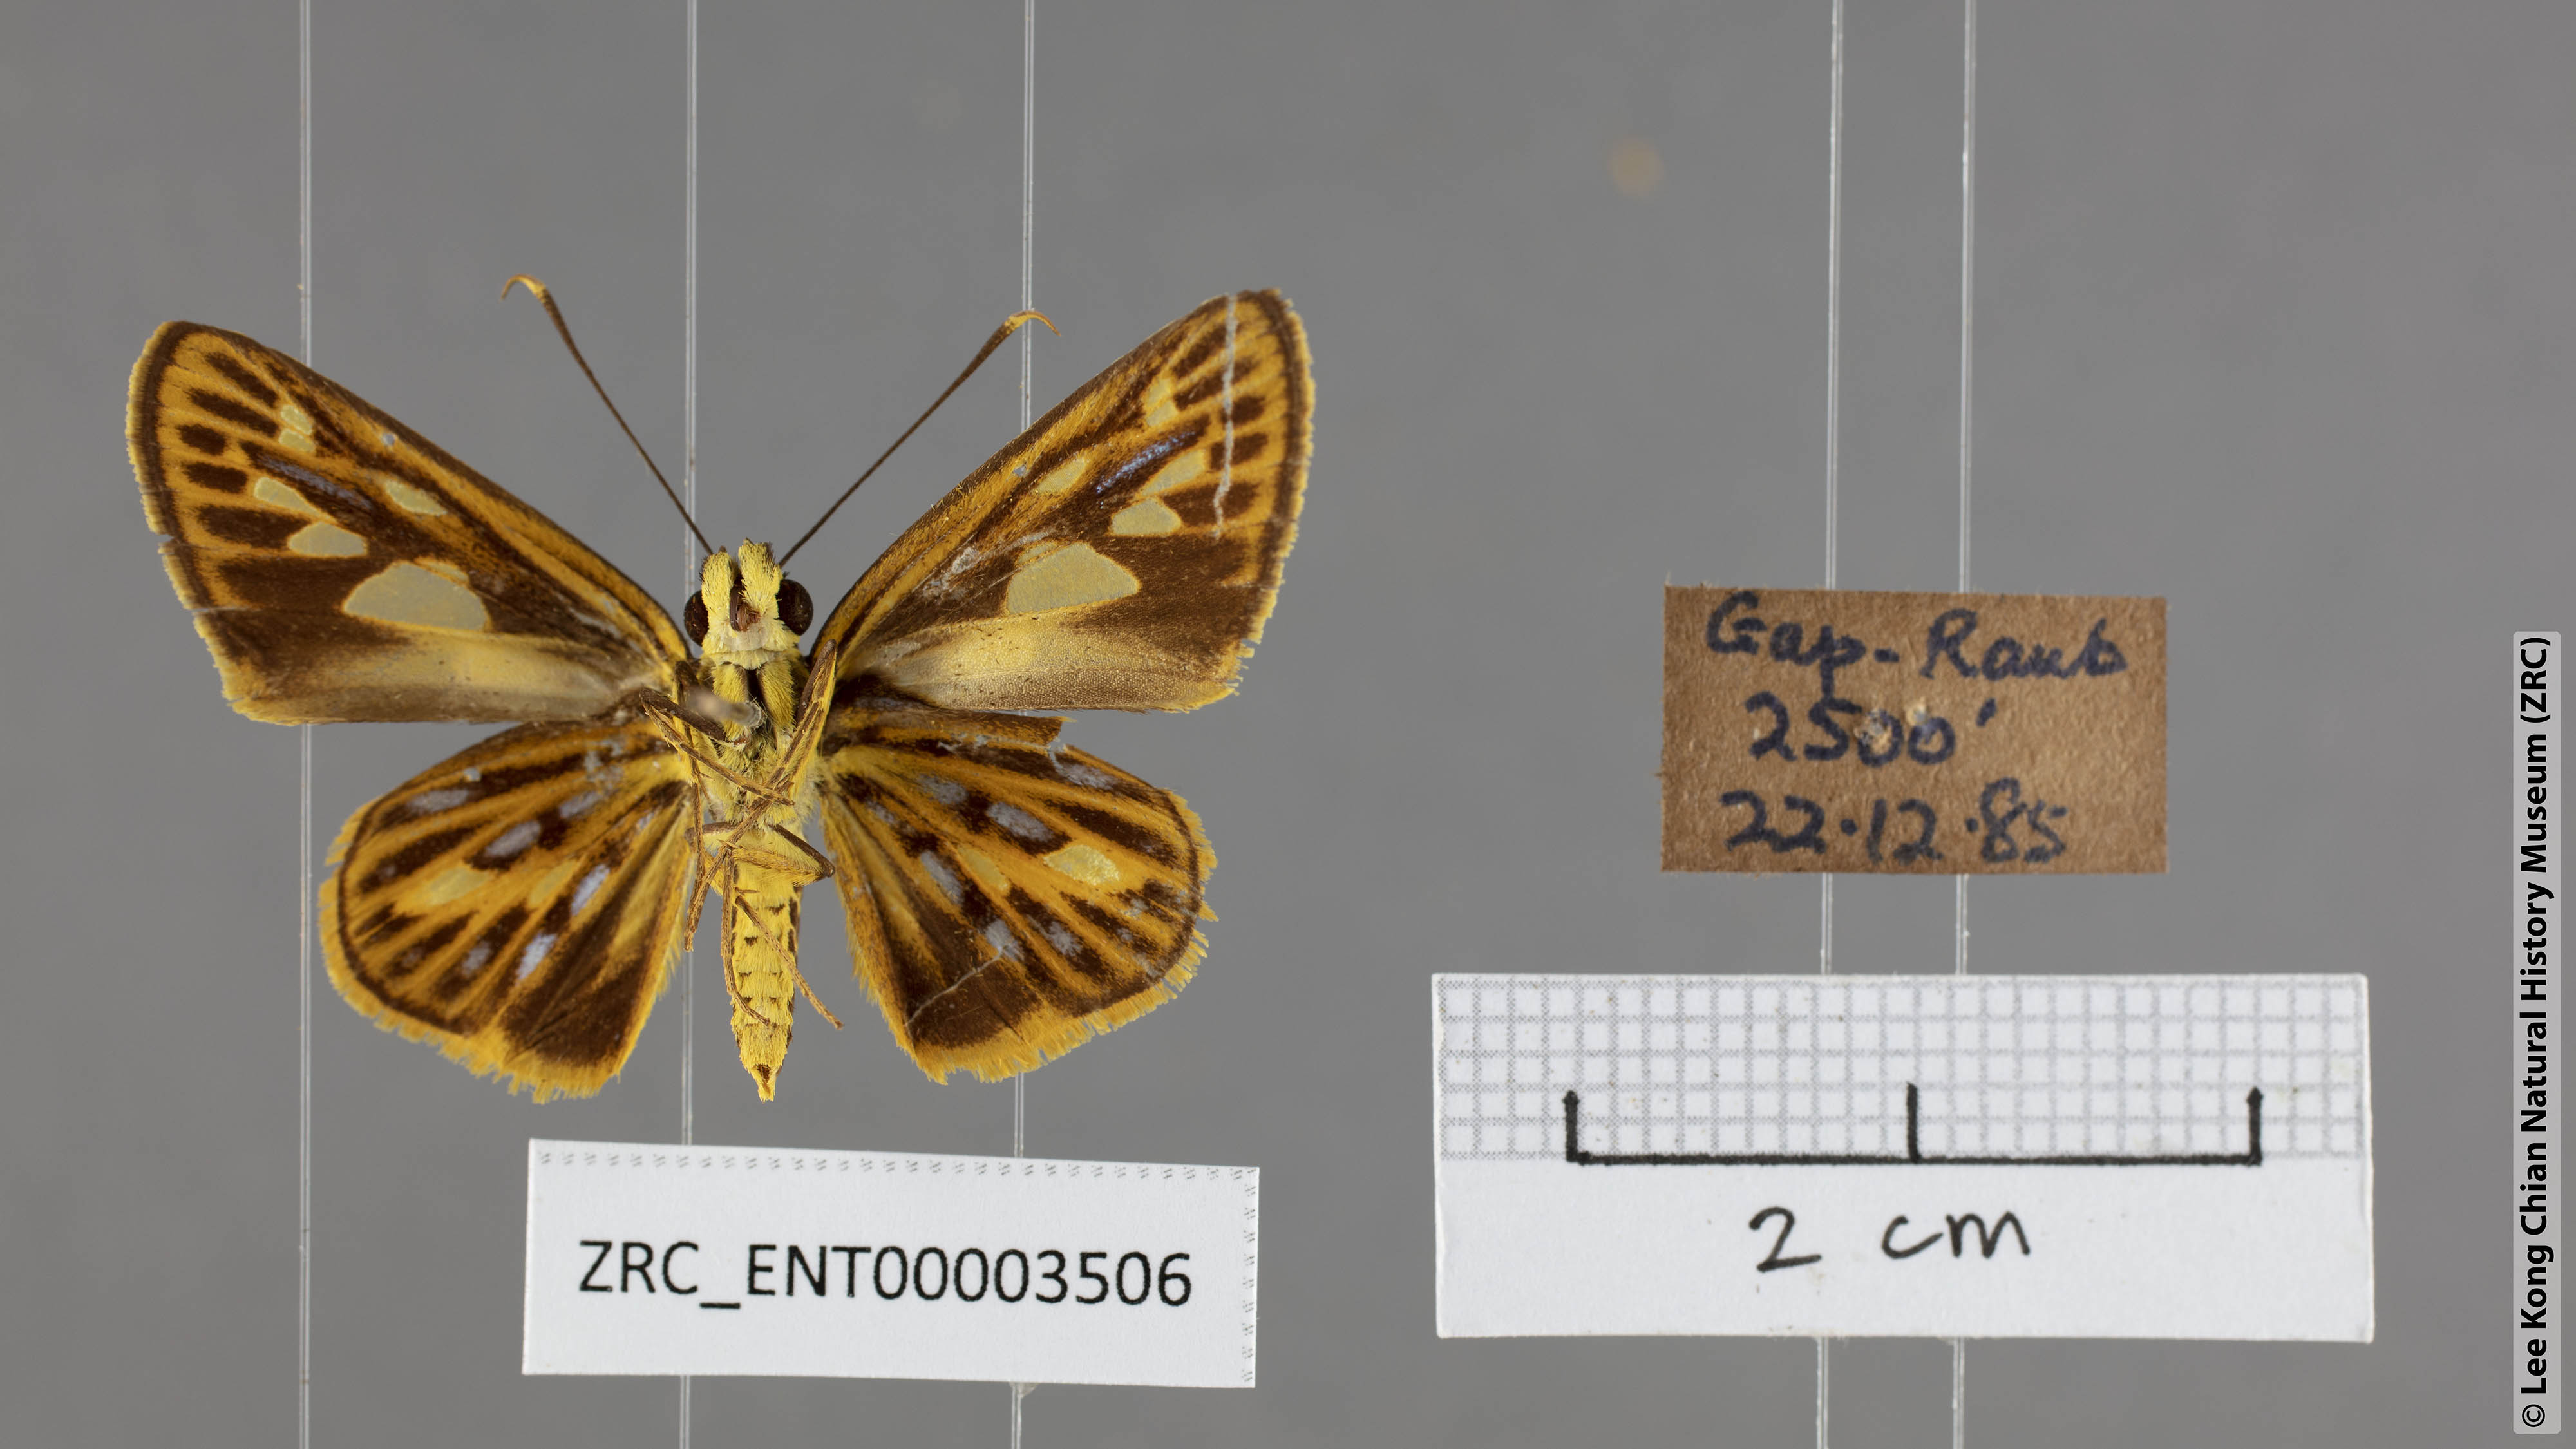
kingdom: Animalia
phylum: Arthropoda
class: Insecta
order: Lepidoptera
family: Hesperiidae
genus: Pyroneura
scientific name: Pyroneura flavia
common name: Lesser lancer
